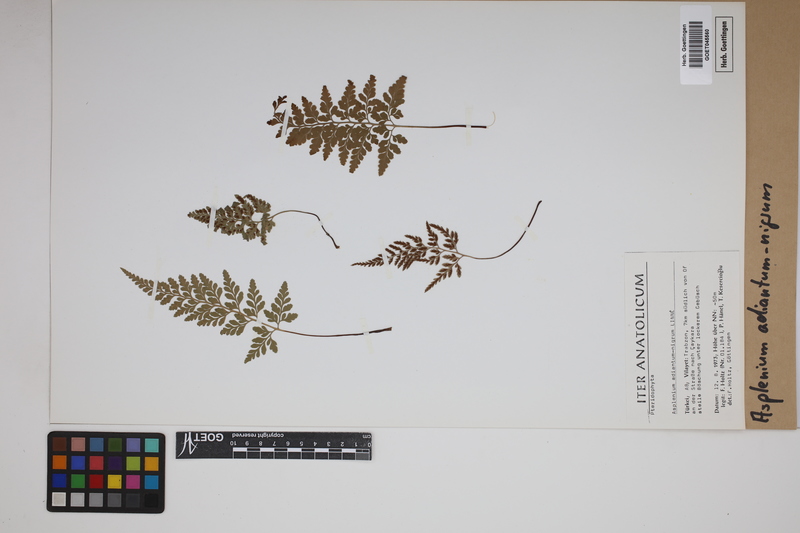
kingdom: Plantae
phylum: Tracheophyta
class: Polypodiopsida
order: Polypodiales
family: Aspleniaceae
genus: Asplenium
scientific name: Asplenium adiantum-nigrum
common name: Black spleenwort
